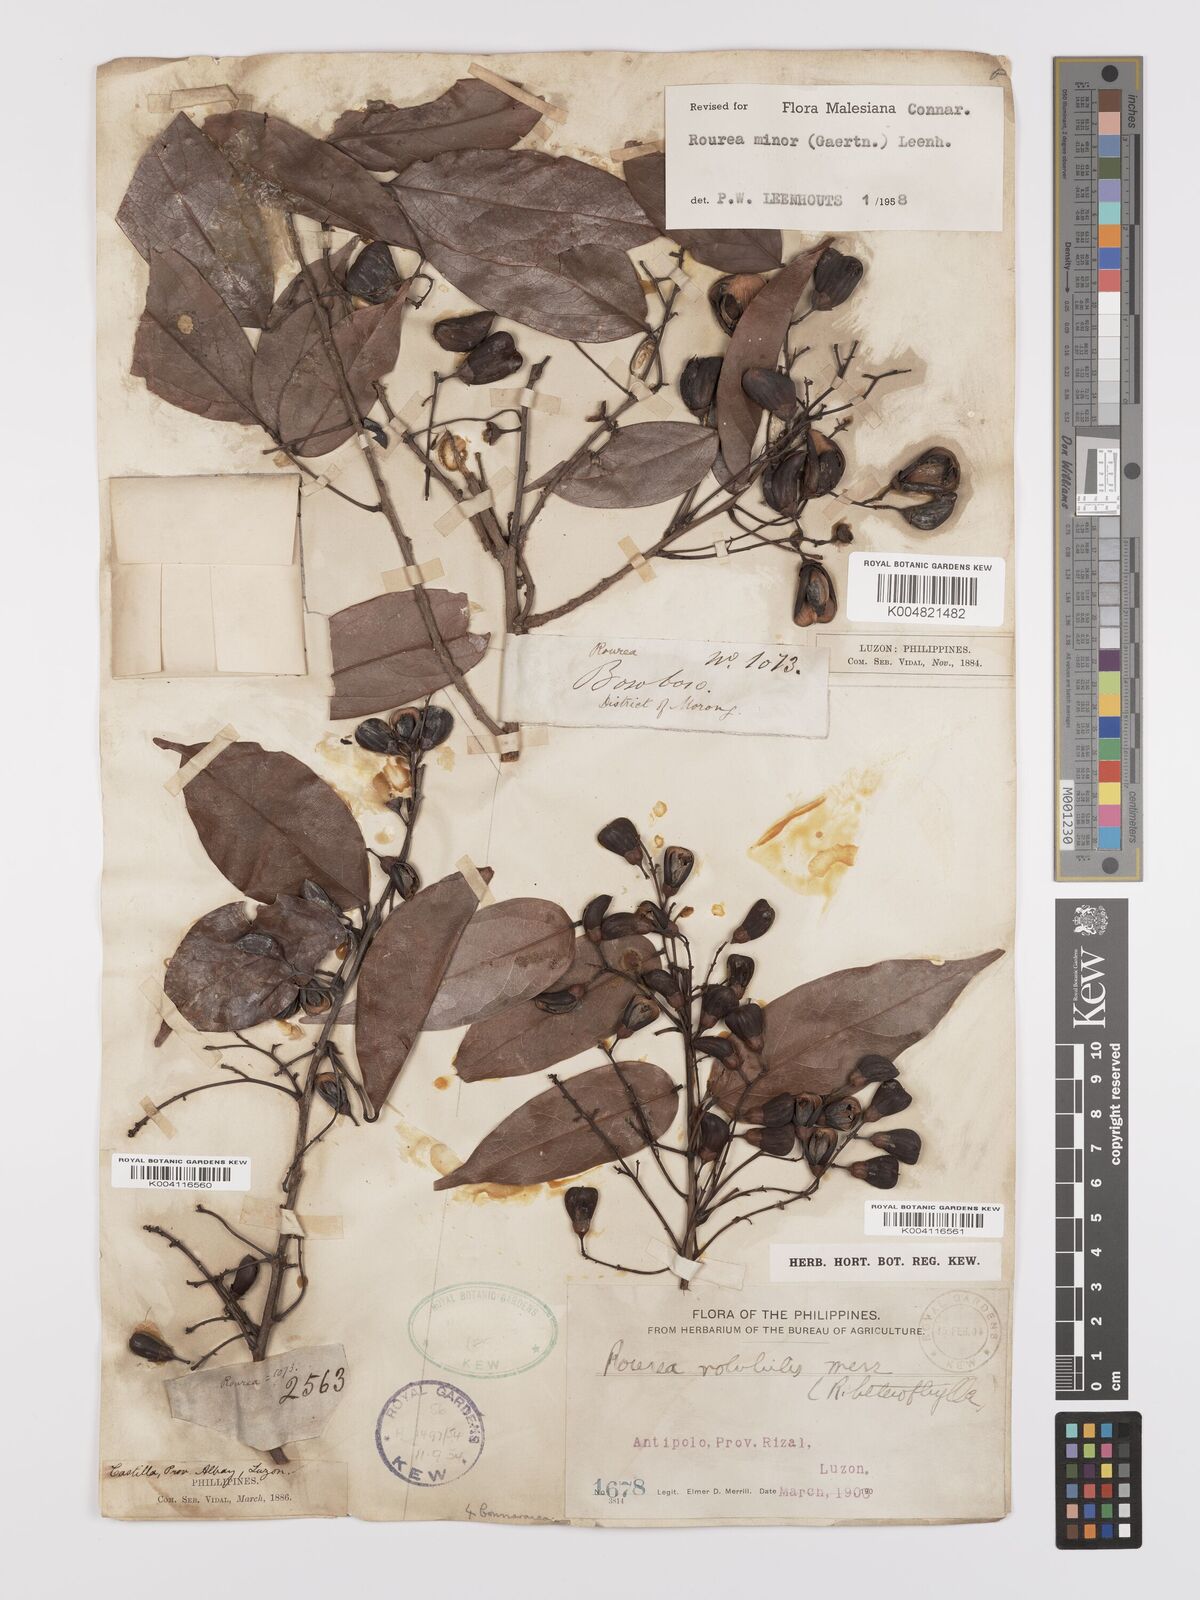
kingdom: Plantae
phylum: Tracheophyta
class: Magnoliopsida
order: Oxalidales
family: Connaraceae
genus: Rourea
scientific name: Rourea minor
